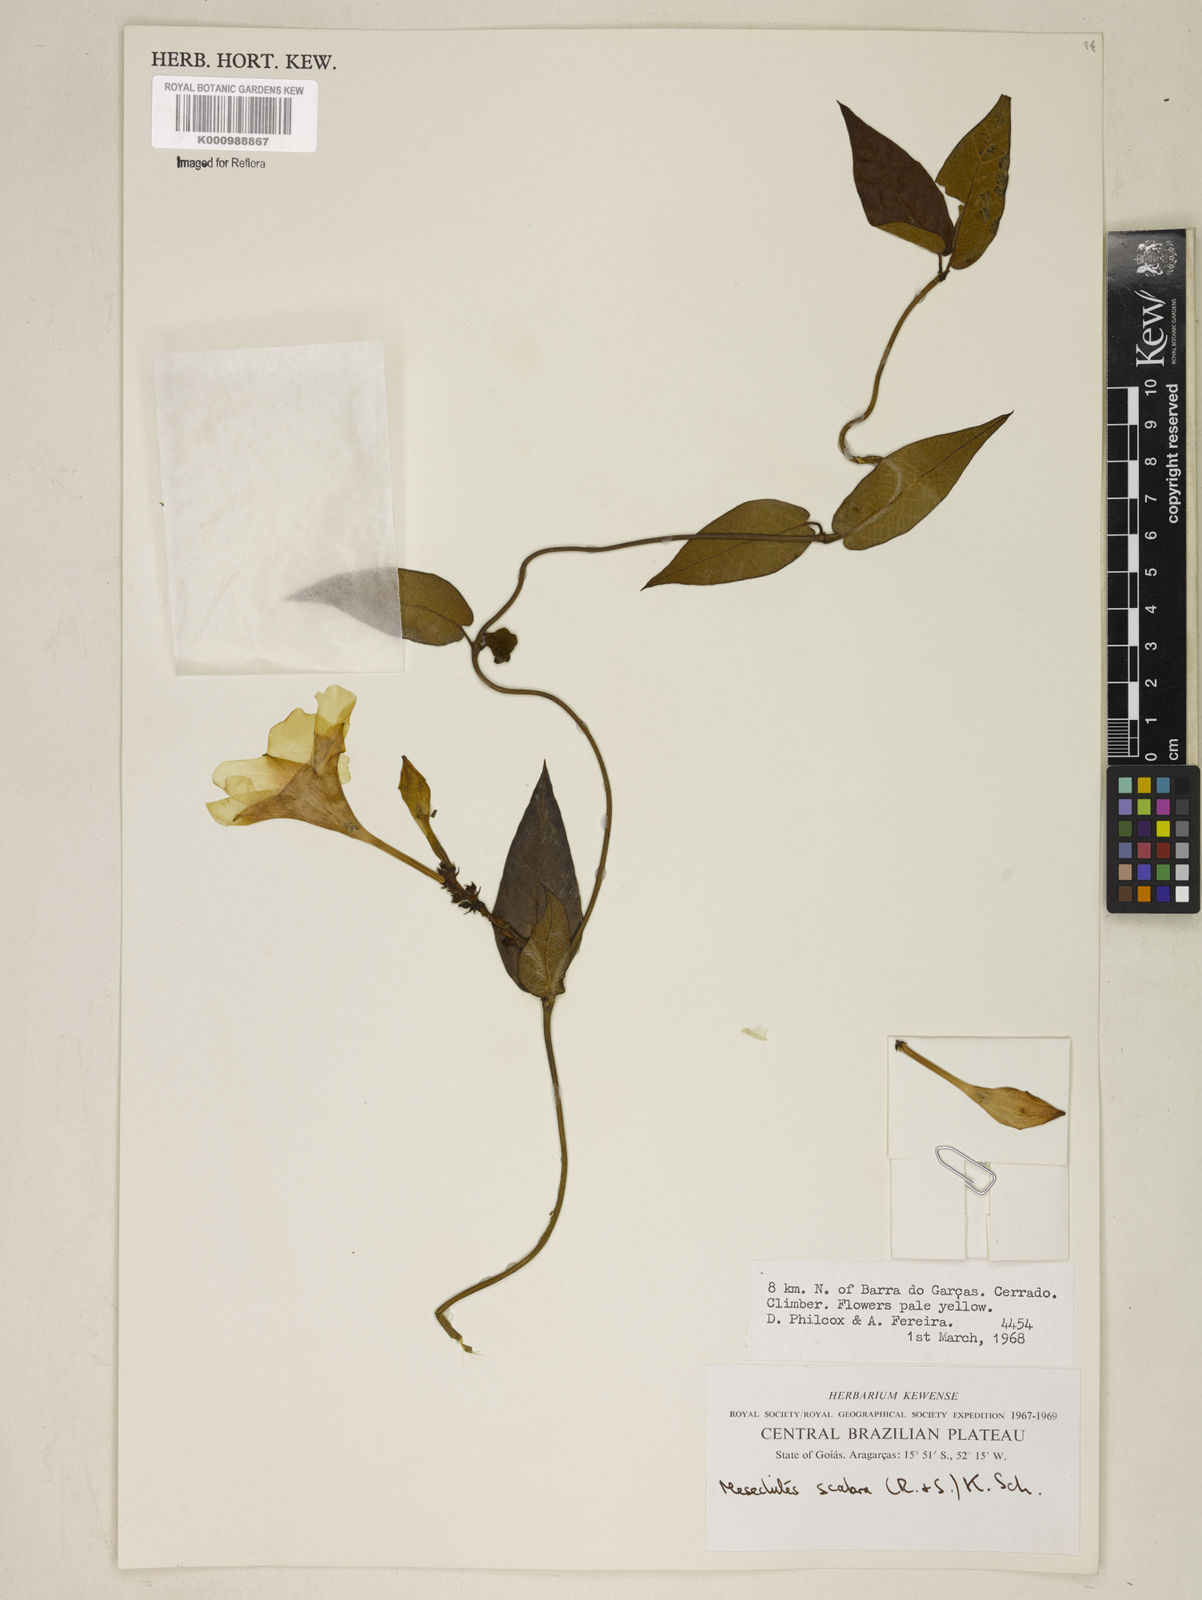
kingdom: Plantae
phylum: Tracheophyta
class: Magnoliopsida
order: Gentianales
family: Apocynaceae
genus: Mandevilla
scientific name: Mandevilla scabra
